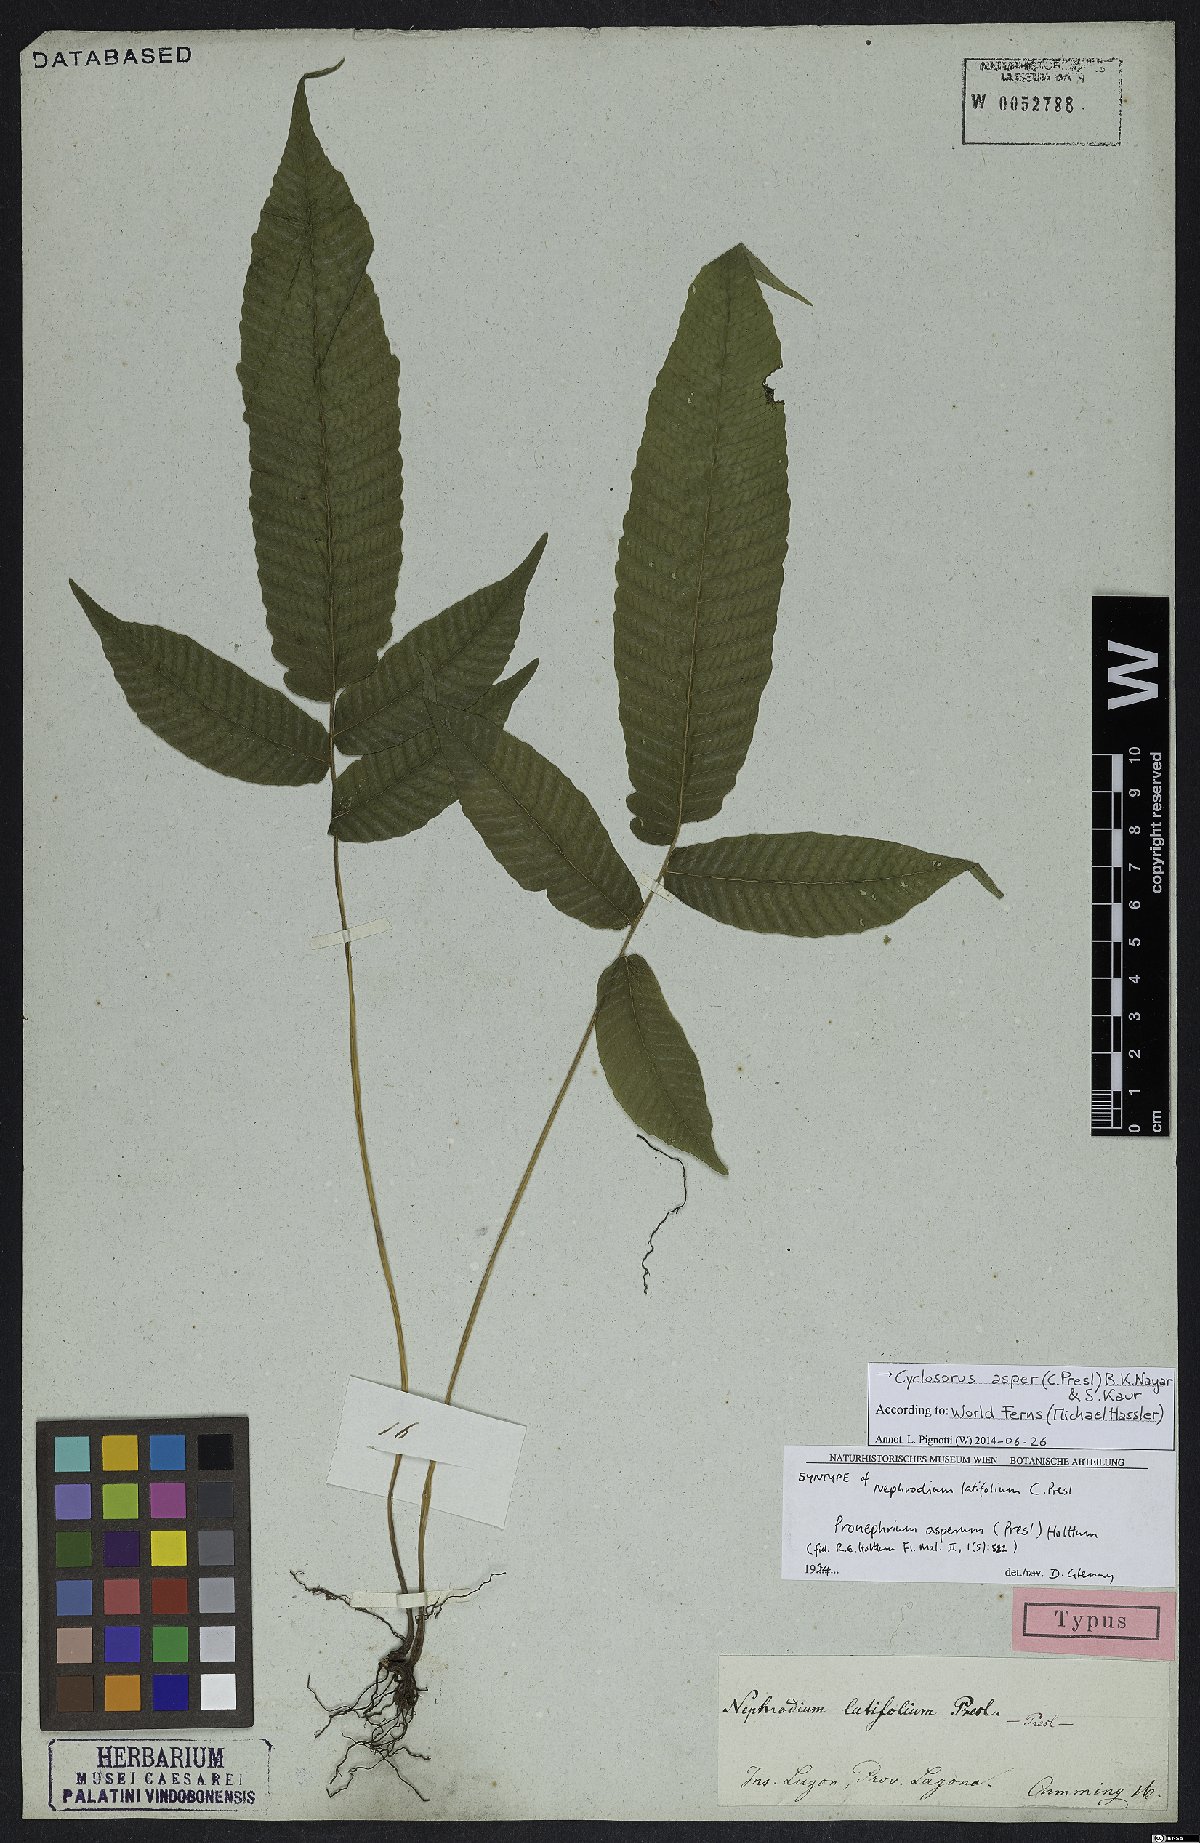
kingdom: Plantae
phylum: Tracheophyta
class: Polypodiopsida
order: Polypodiales
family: Thelypteridaceae
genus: Abacopteris
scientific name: Abacopteris aspera
